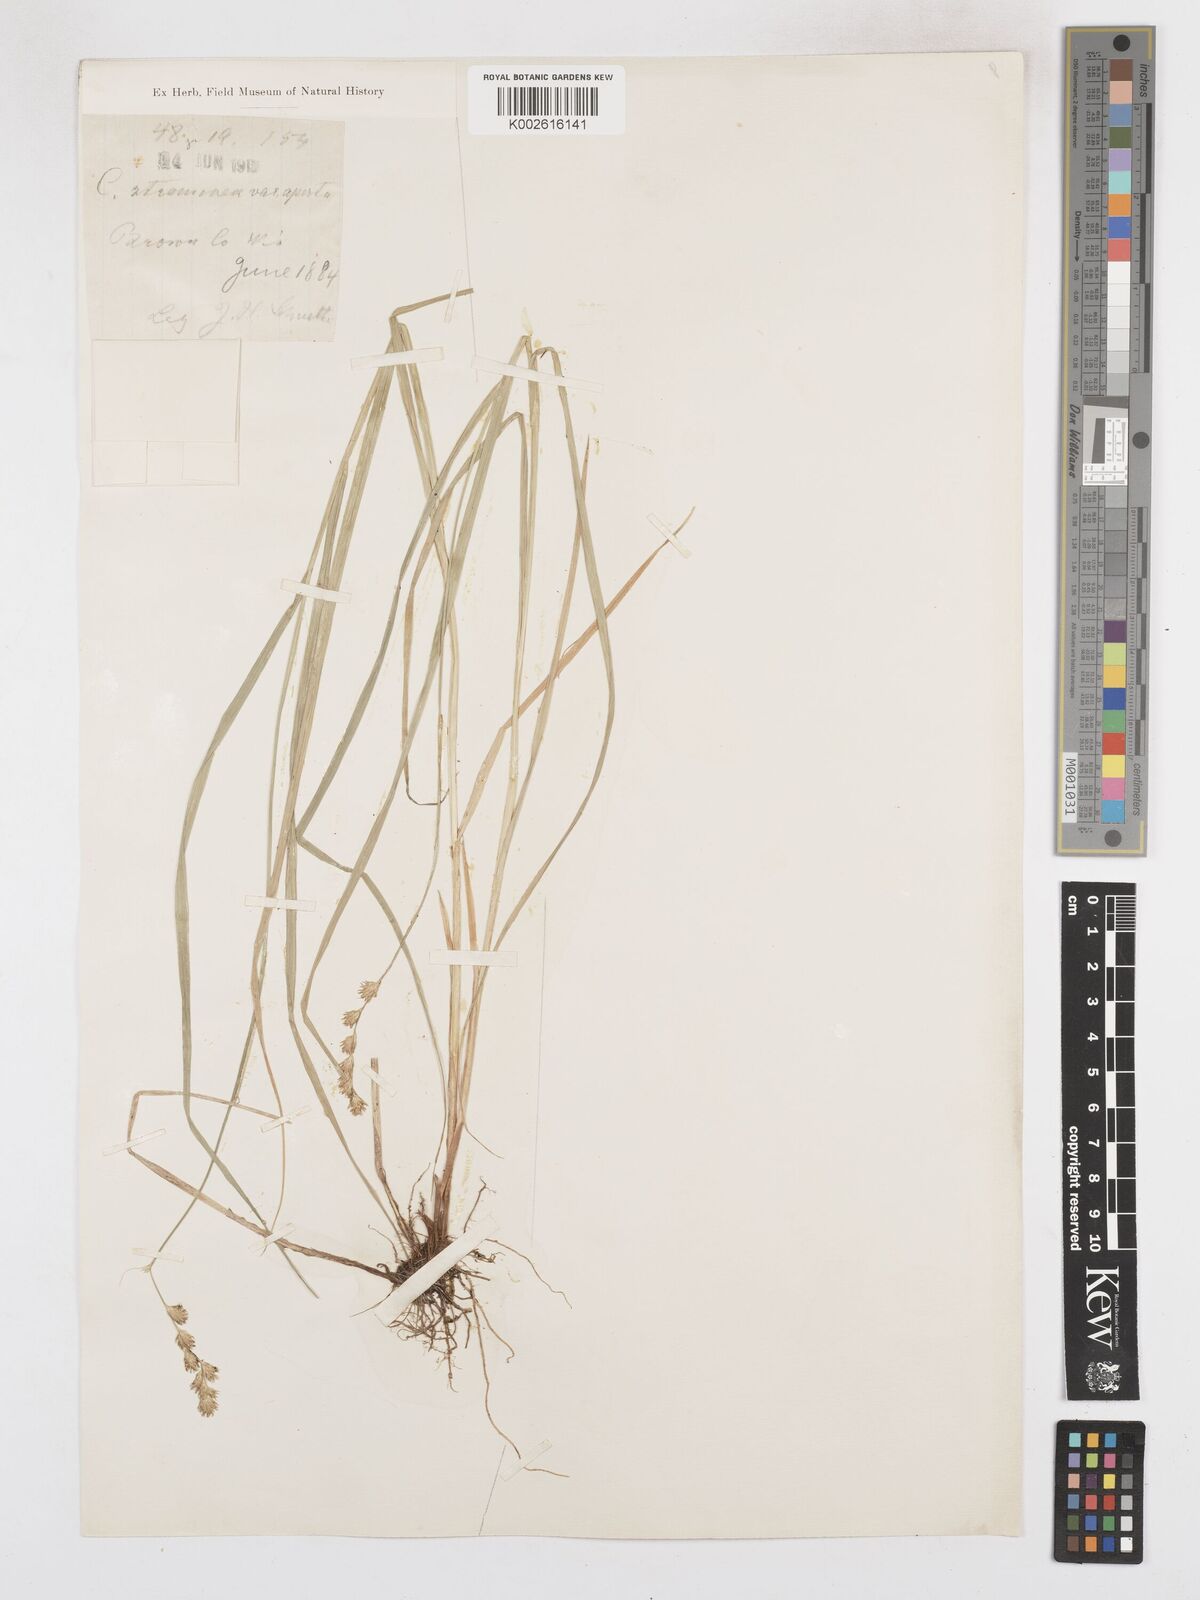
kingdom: Plantae
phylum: Tracheophyta
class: Liliopsida
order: Poales
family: Cyperaceae
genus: Carex
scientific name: Carex brevior
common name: Brevior sedge
